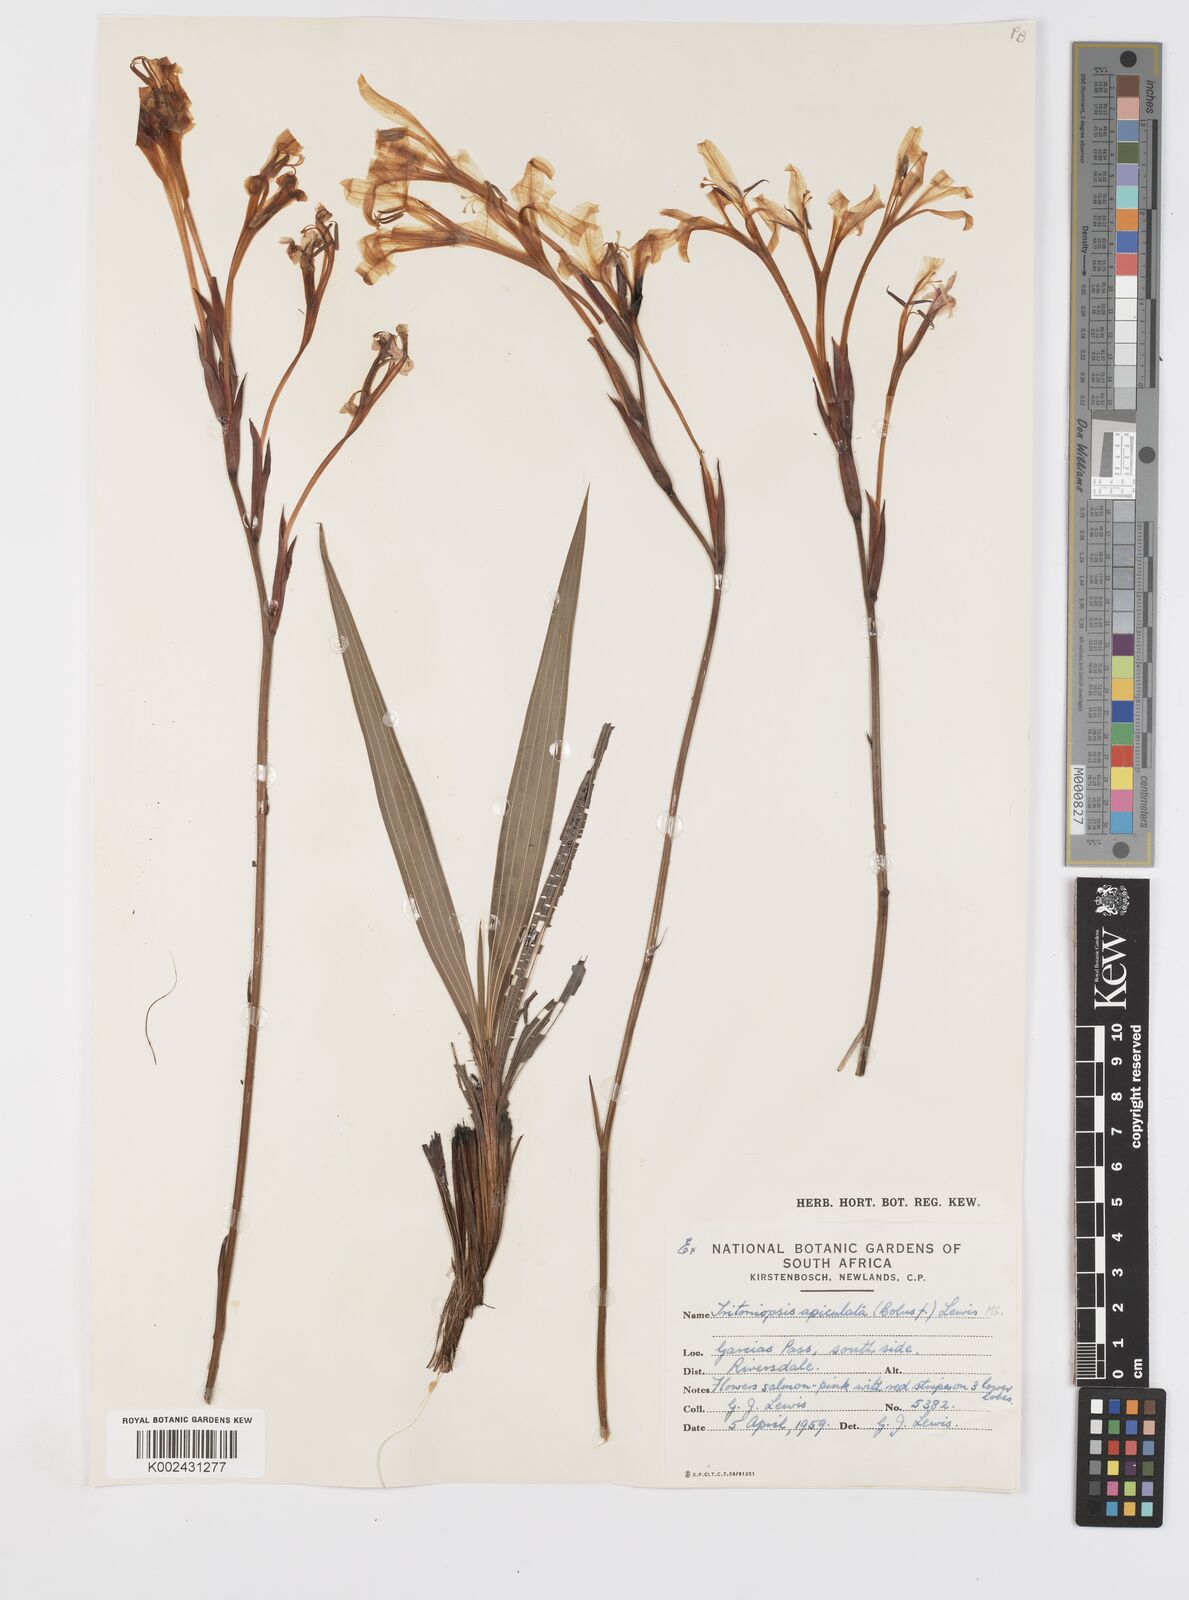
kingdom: Plantae
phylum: Tracheophyta
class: Liliopsida
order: Asparagales
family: Iridaceae
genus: Tritoniopsis
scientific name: Tritoniopsis revoluta
